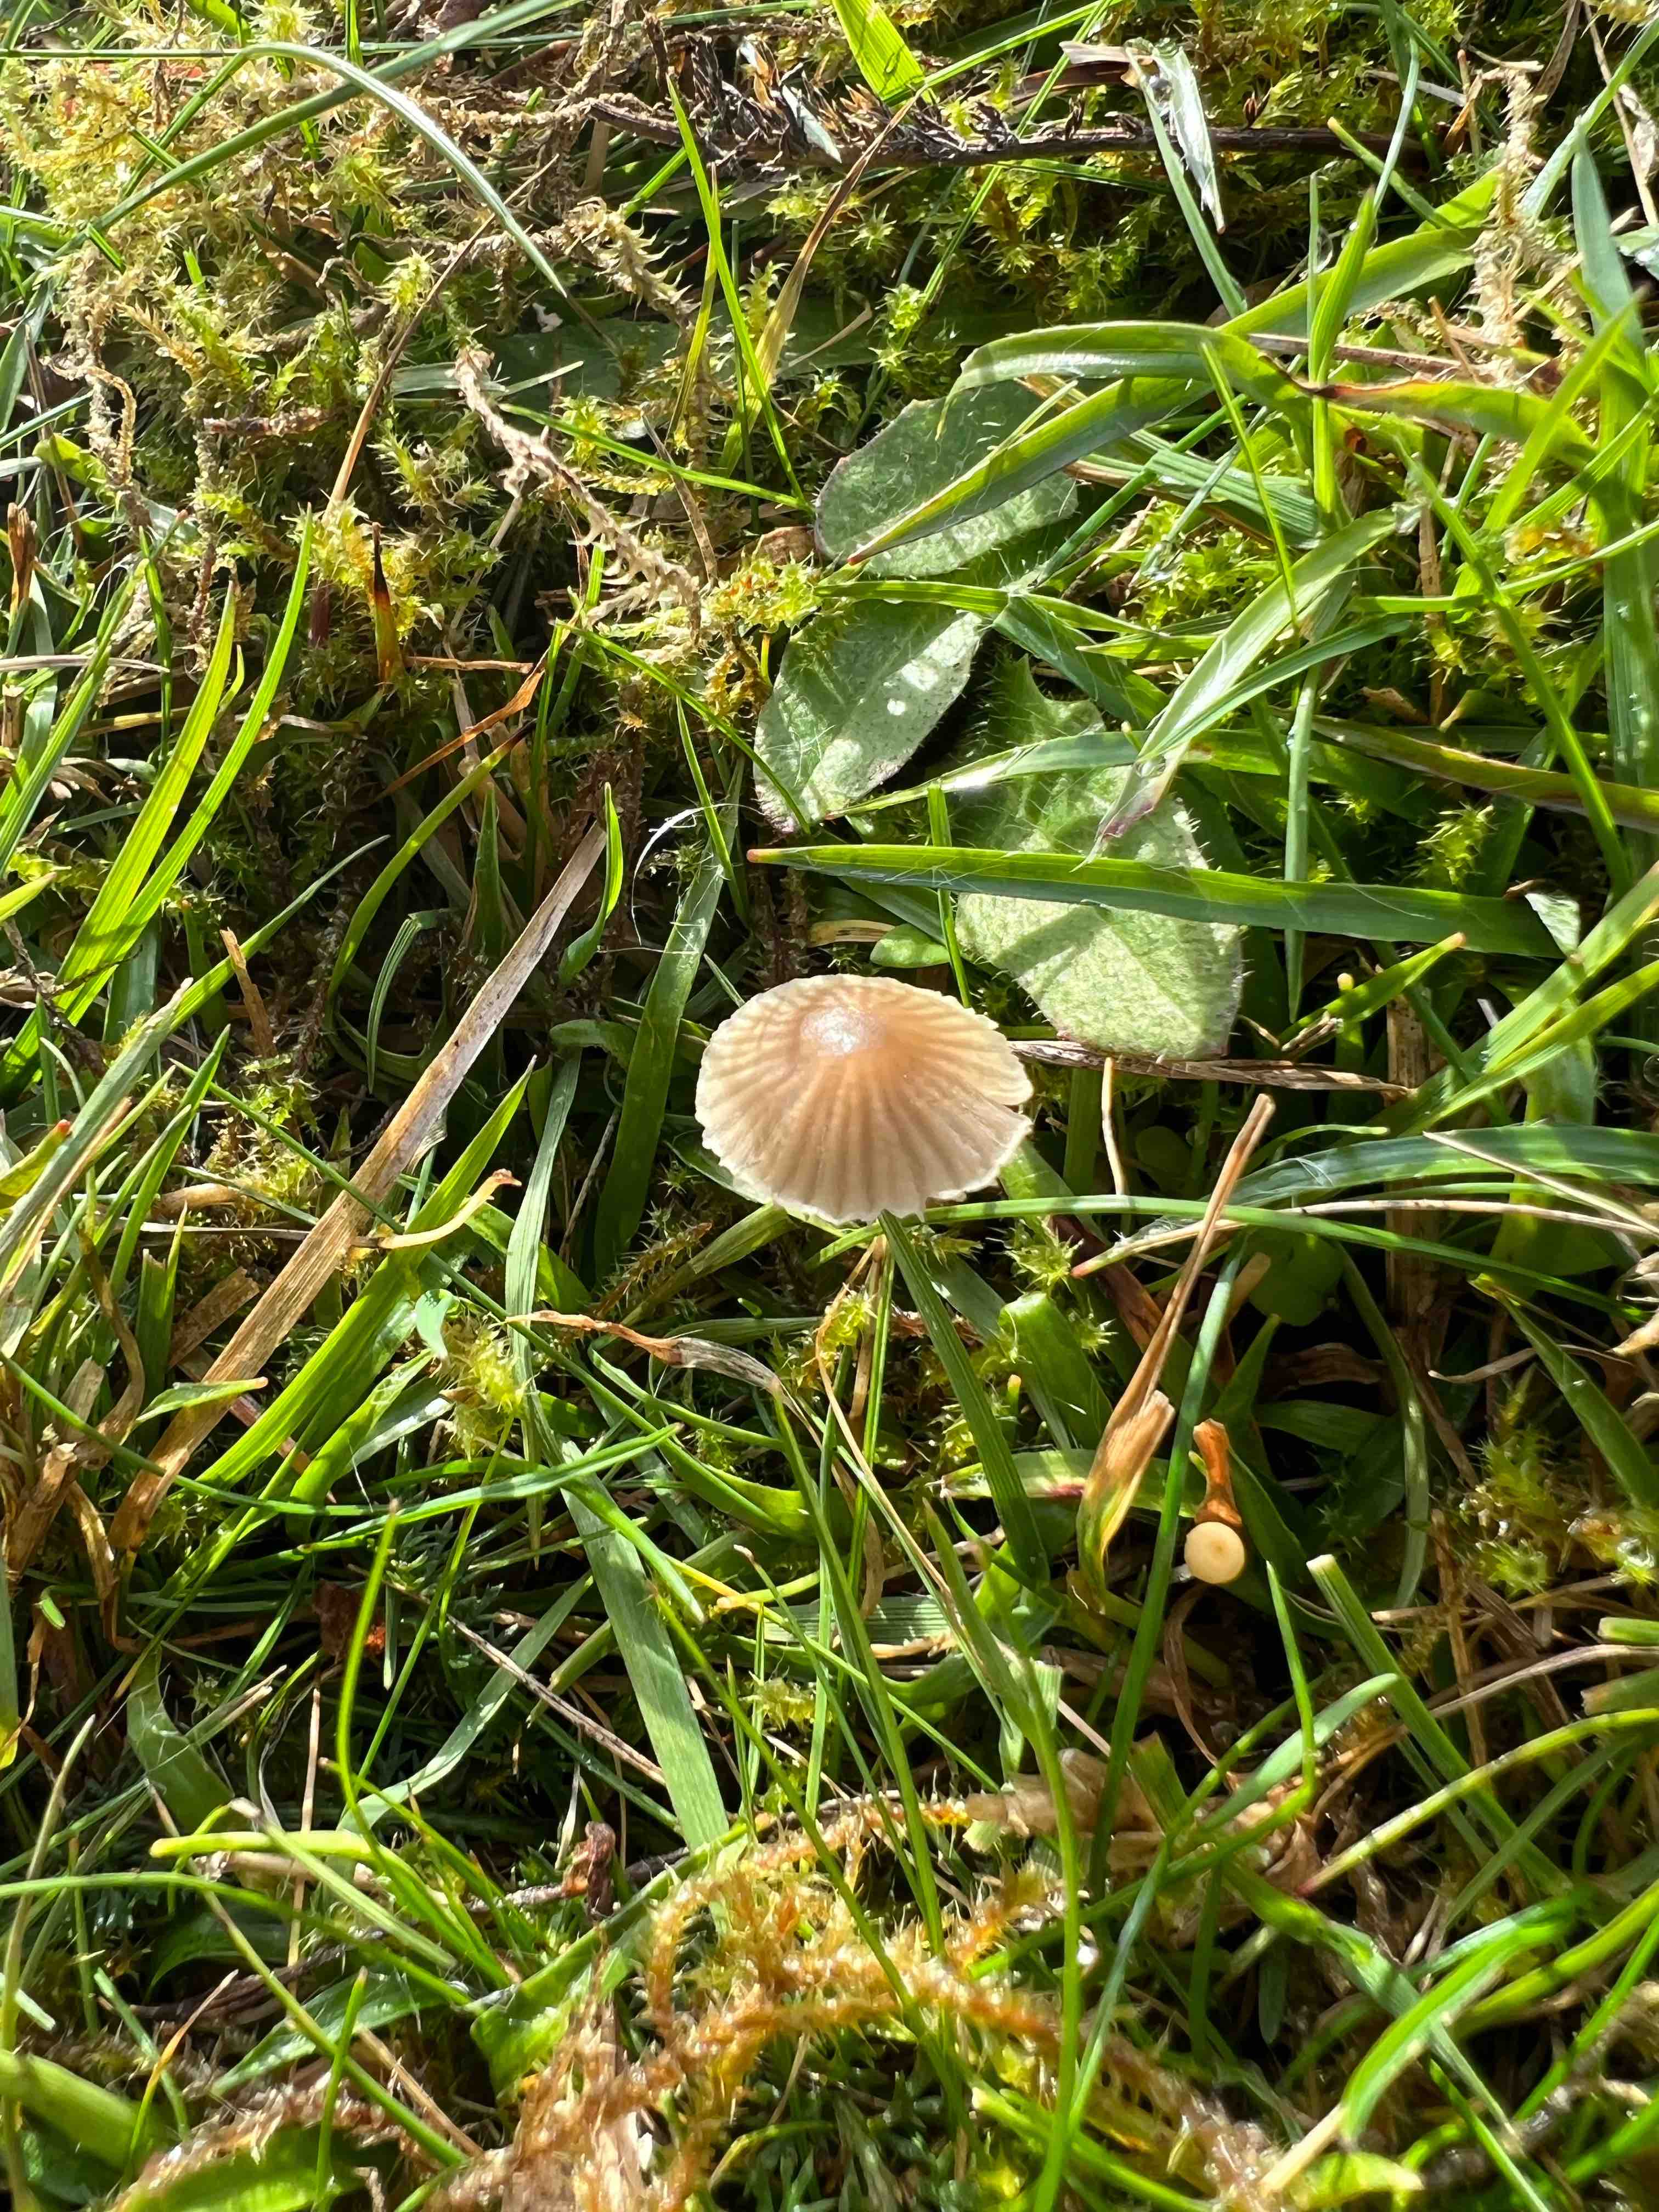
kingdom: Fungi
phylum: Basidiomycota
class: Agaricomycetes
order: Agaricales
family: Mycenaceae
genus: Mycena
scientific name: Mycena
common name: huesvamp
